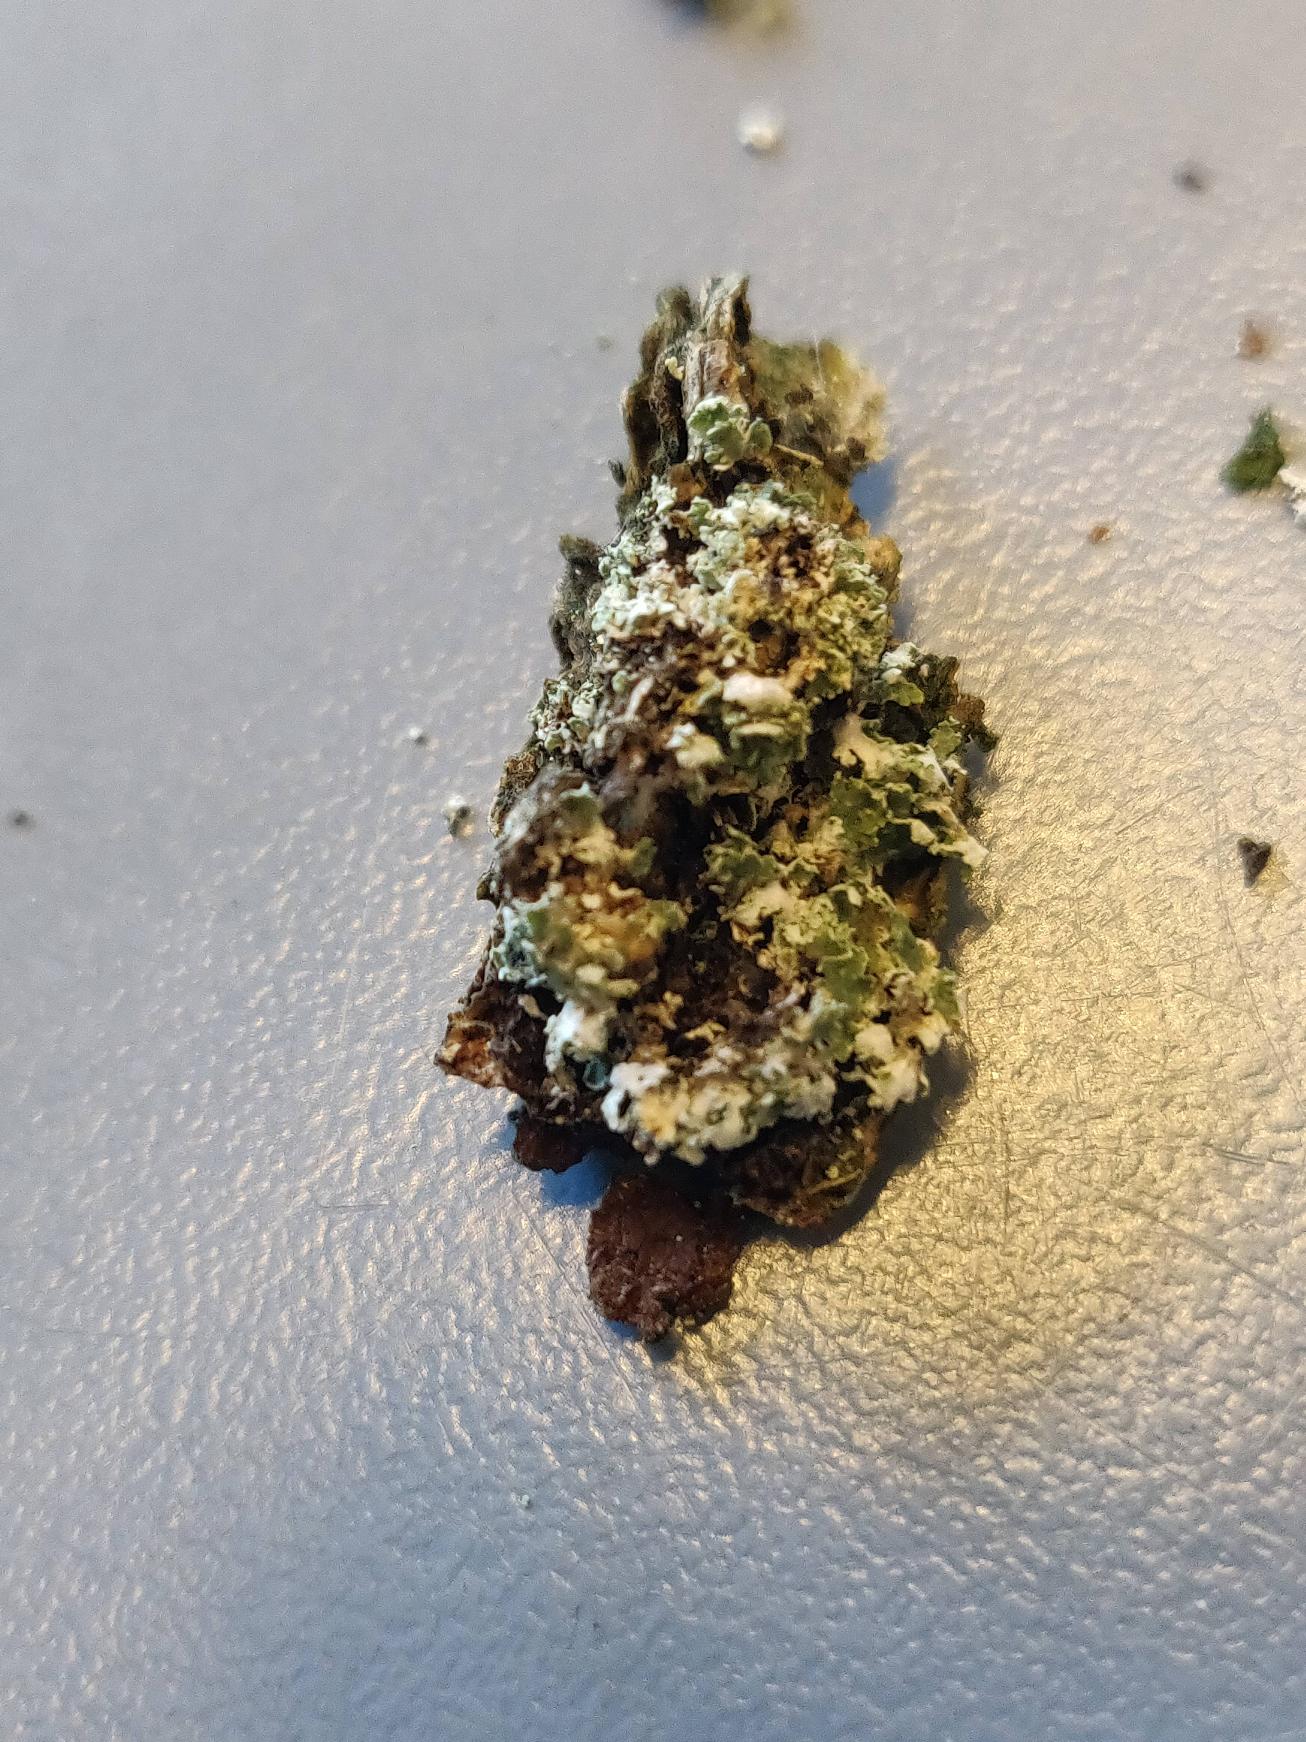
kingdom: Fungi
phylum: Ascomycota
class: Lecanoromycetes
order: Lecanorales
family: Cladoniaceae
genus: Cladonia
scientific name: Cladonia
